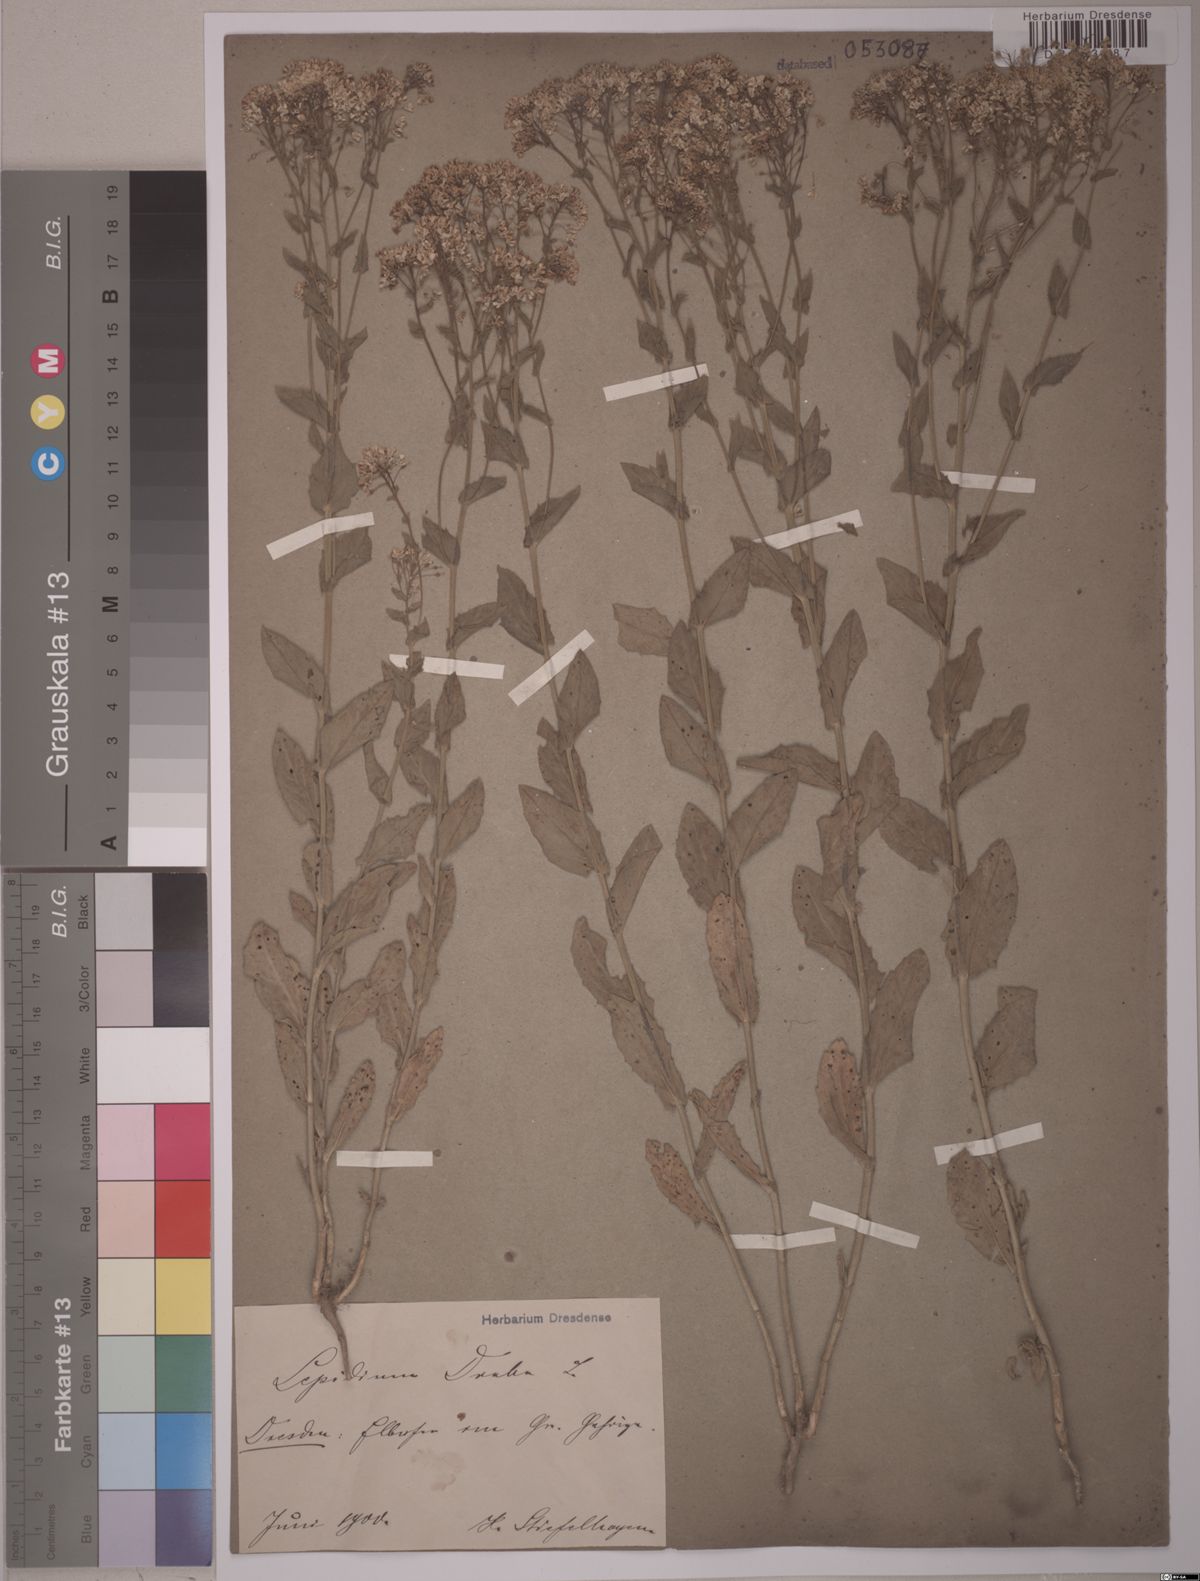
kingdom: Plantae
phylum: Tracheophyta
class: Magnoliopsida
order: Brassicales
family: Brassicaceae
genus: Lepidium
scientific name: Lepidium draba
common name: Hoary cress
